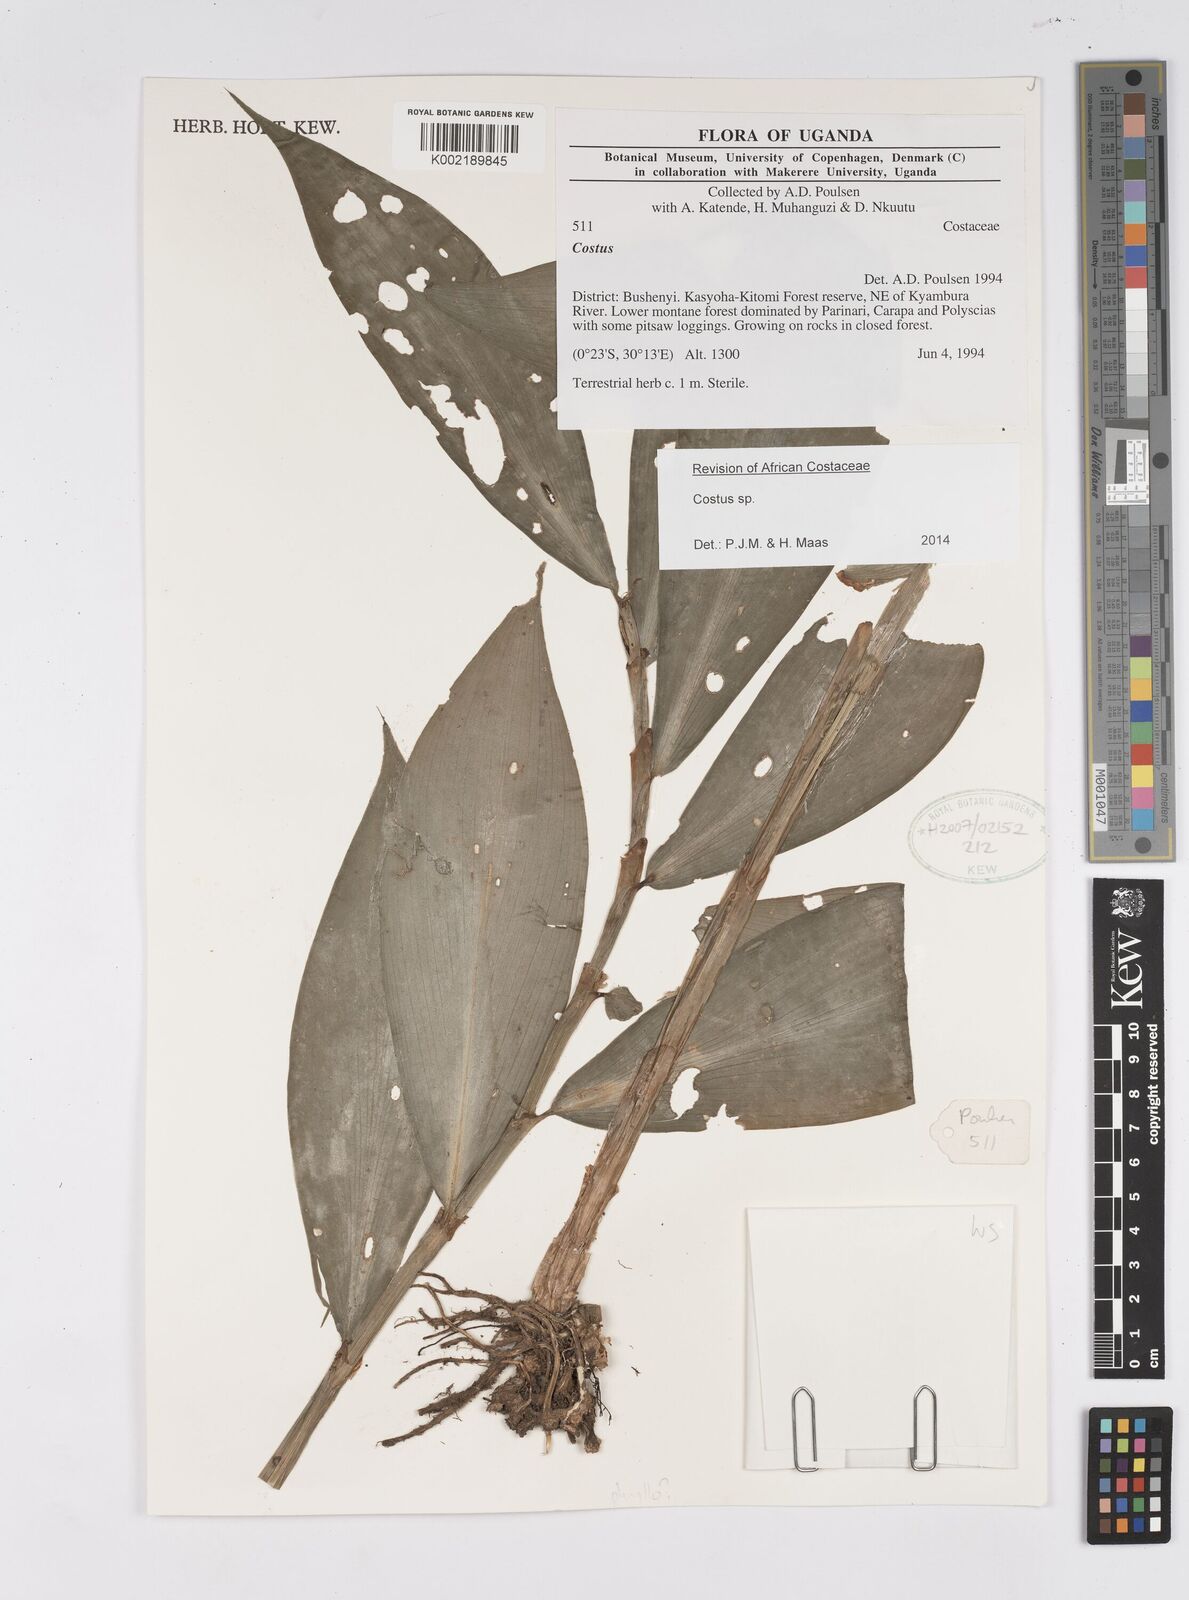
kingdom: Plantae
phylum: Tracheophyta
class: Liliopsida
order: Zingiberales
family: Costaceae
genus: Costus
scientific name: Costus
